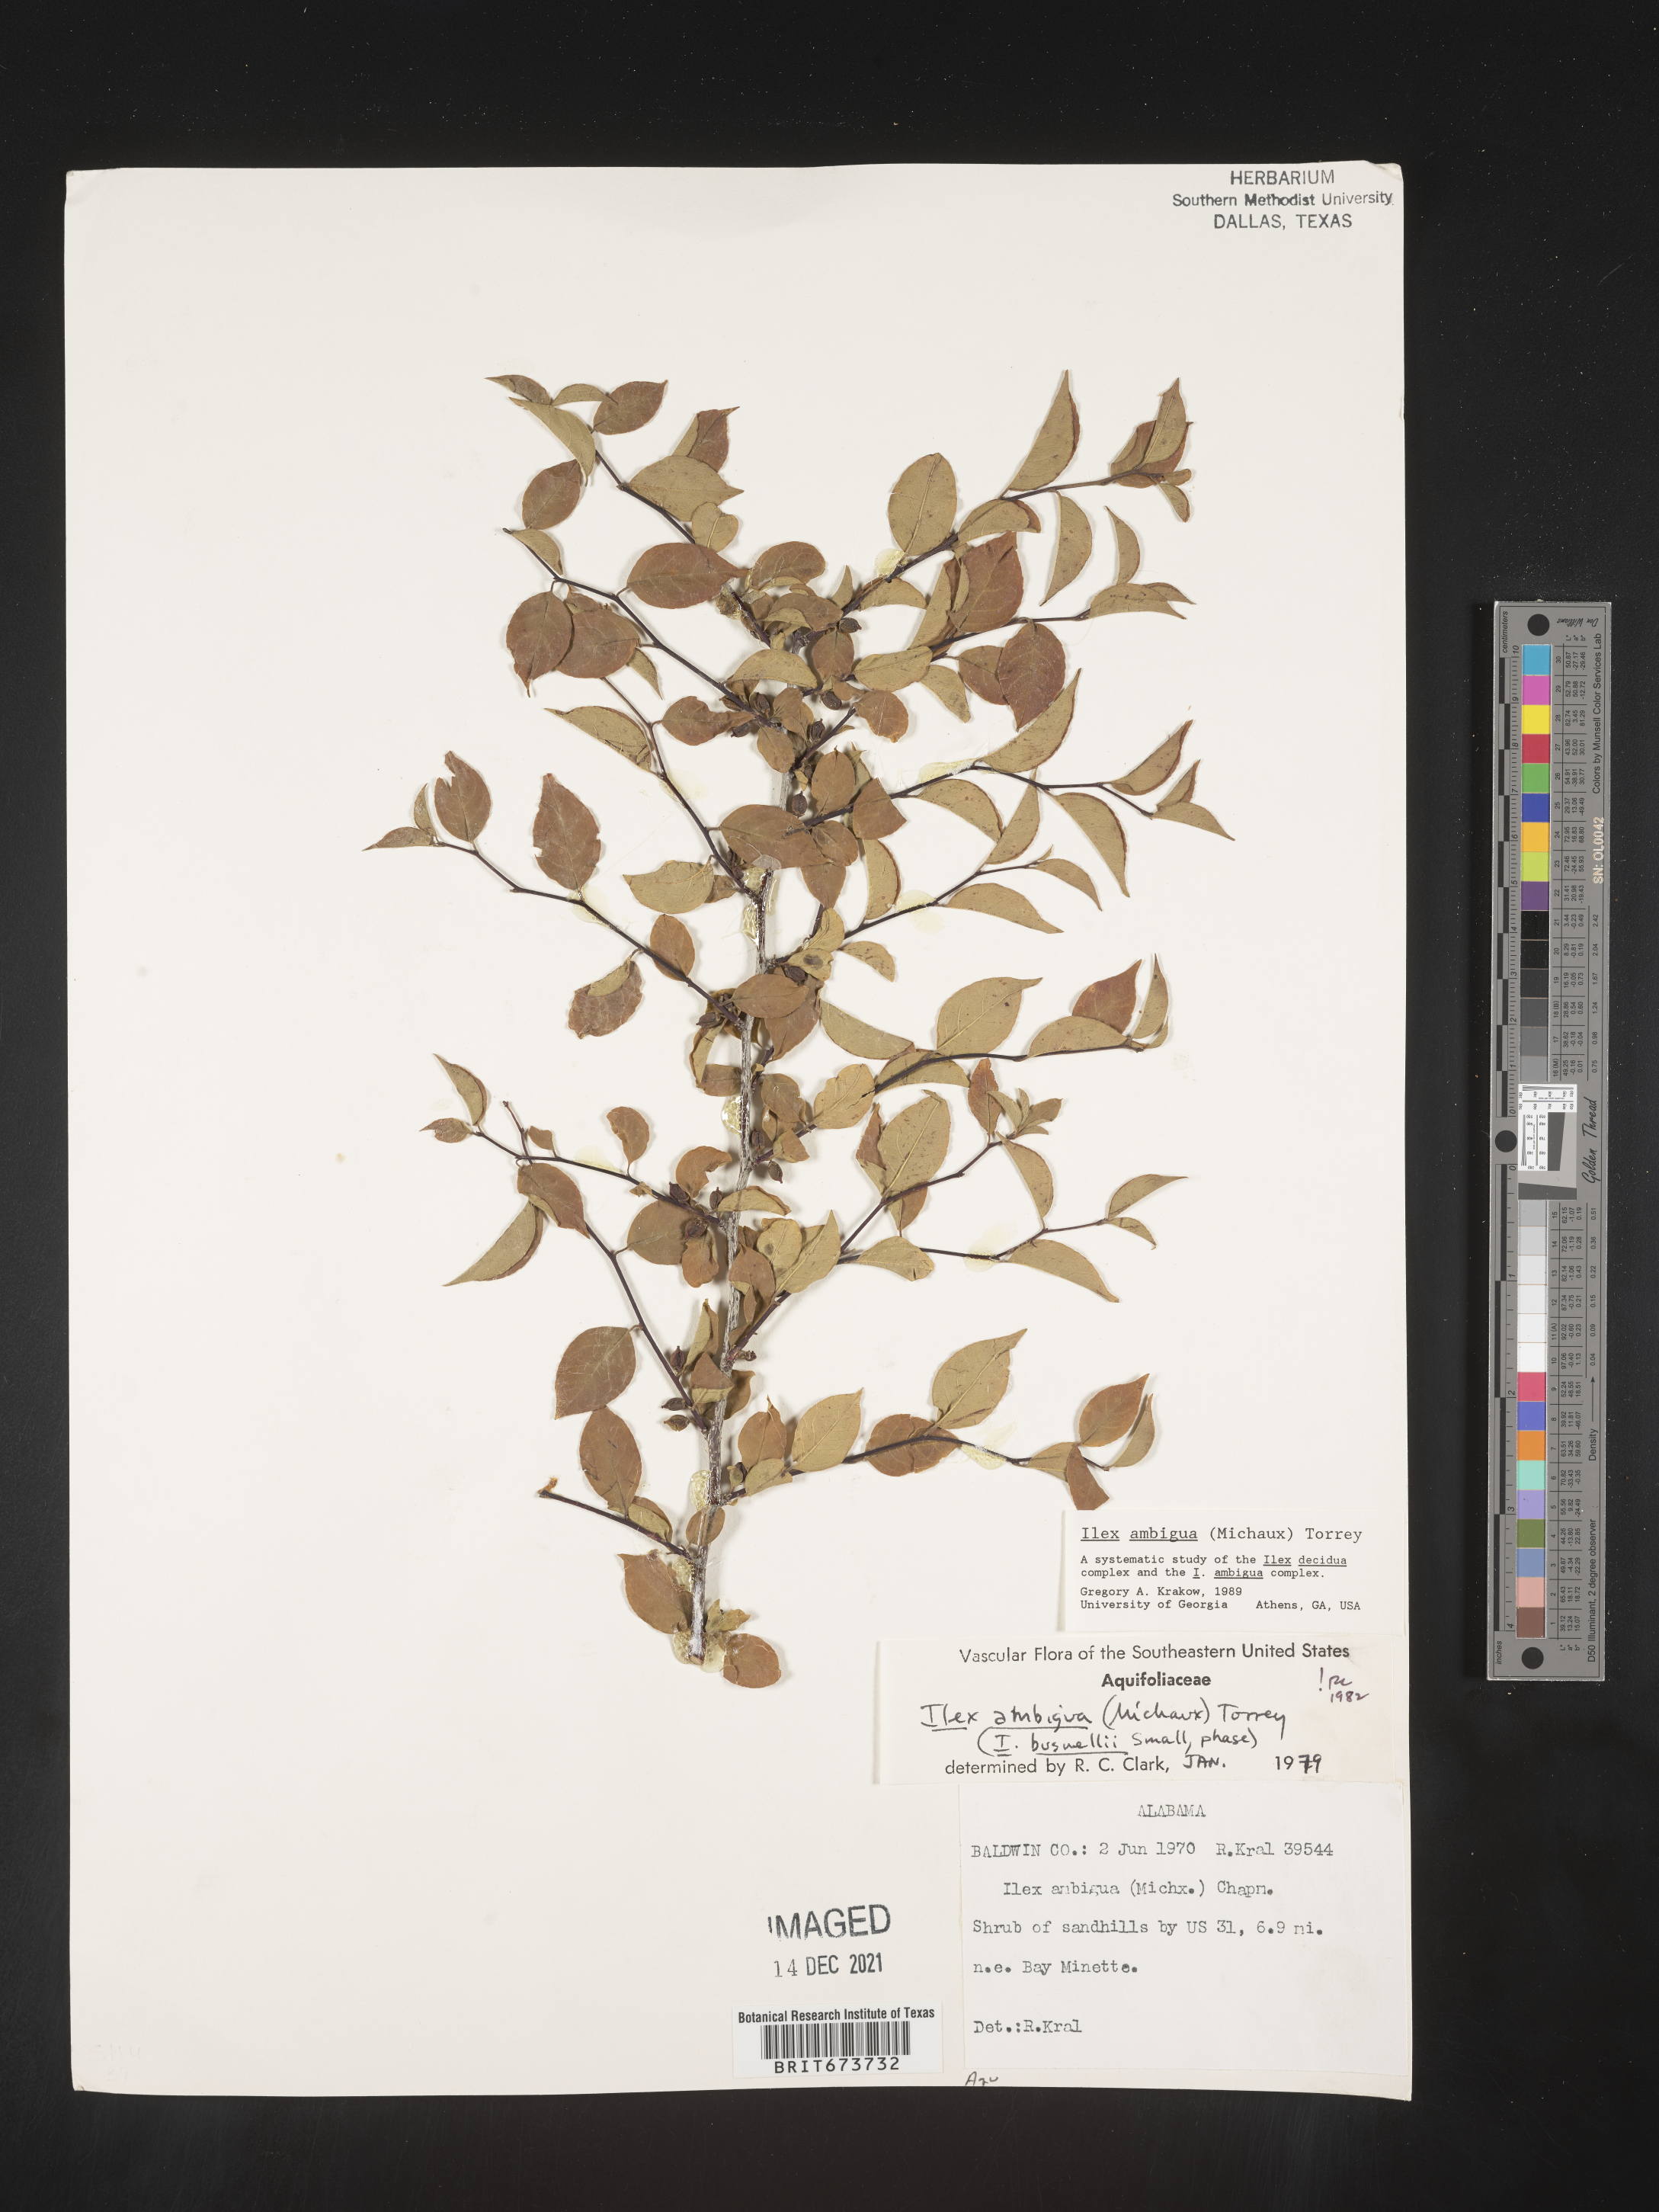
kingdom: Plantae
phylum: Tracheophyta
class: Magnoliopsida
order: Aquifoliales
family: Aquifoliaceae
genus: Ilex
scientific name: Ilex ambigua
